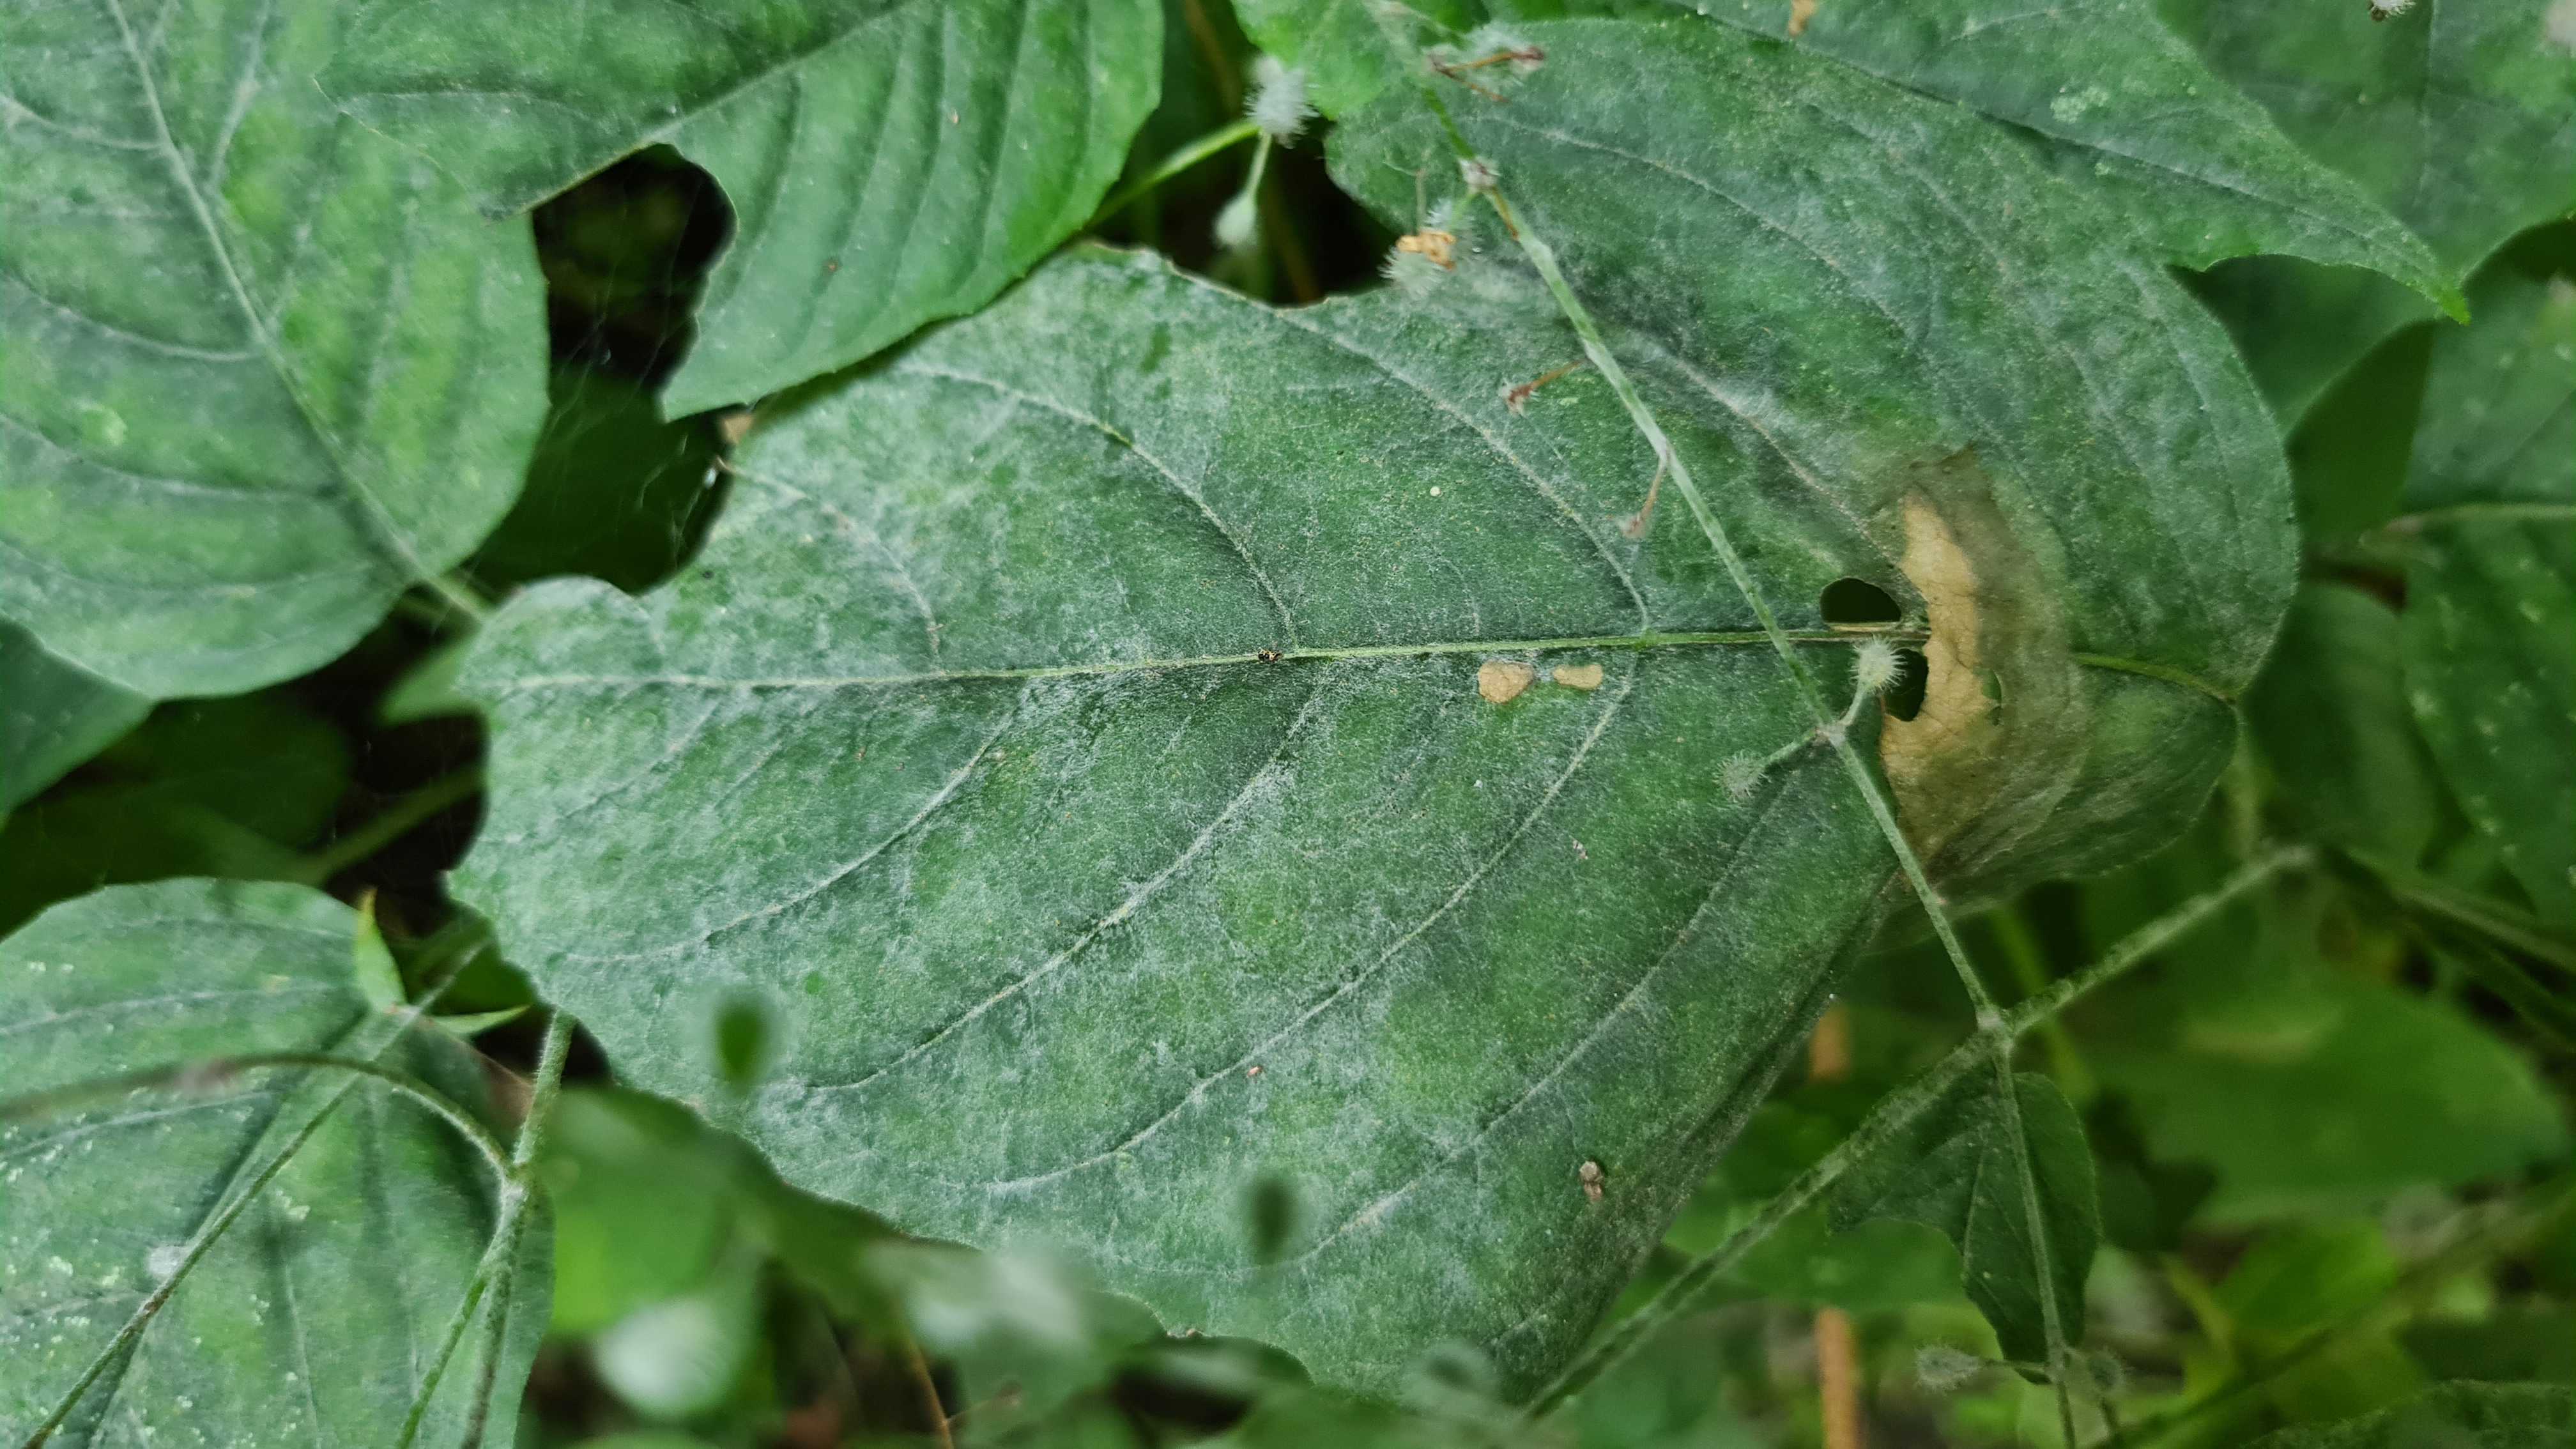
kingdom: Fungi
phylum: Ascomycota
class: Leotiomycetes
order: Helotiales
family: Erysiphaceae
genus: Erysiphe
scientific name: Erysiphe circaeae
